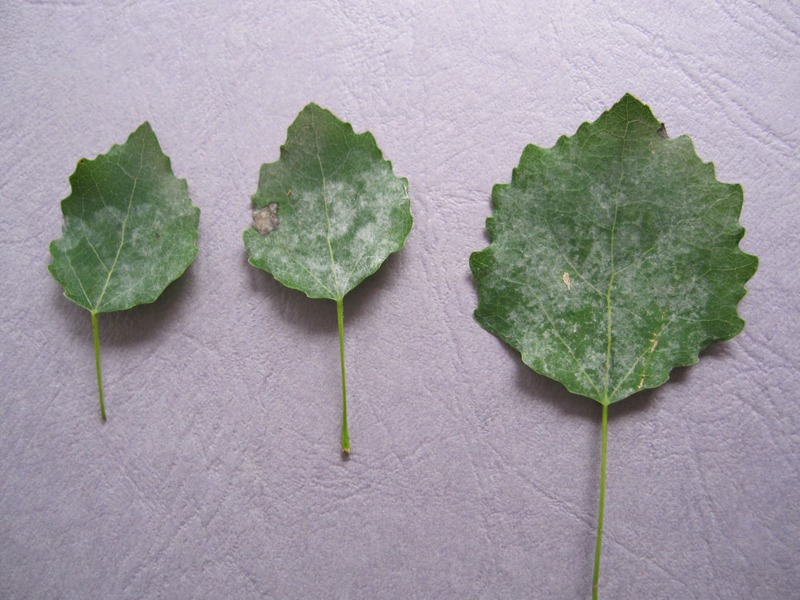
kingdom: Fungi
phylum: Ascomycota
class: Leotiomycetes
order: Helotiales
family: Erysiphaceae
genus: Erysiphe
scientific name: Erysiphe adunca
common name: Willow mildew
